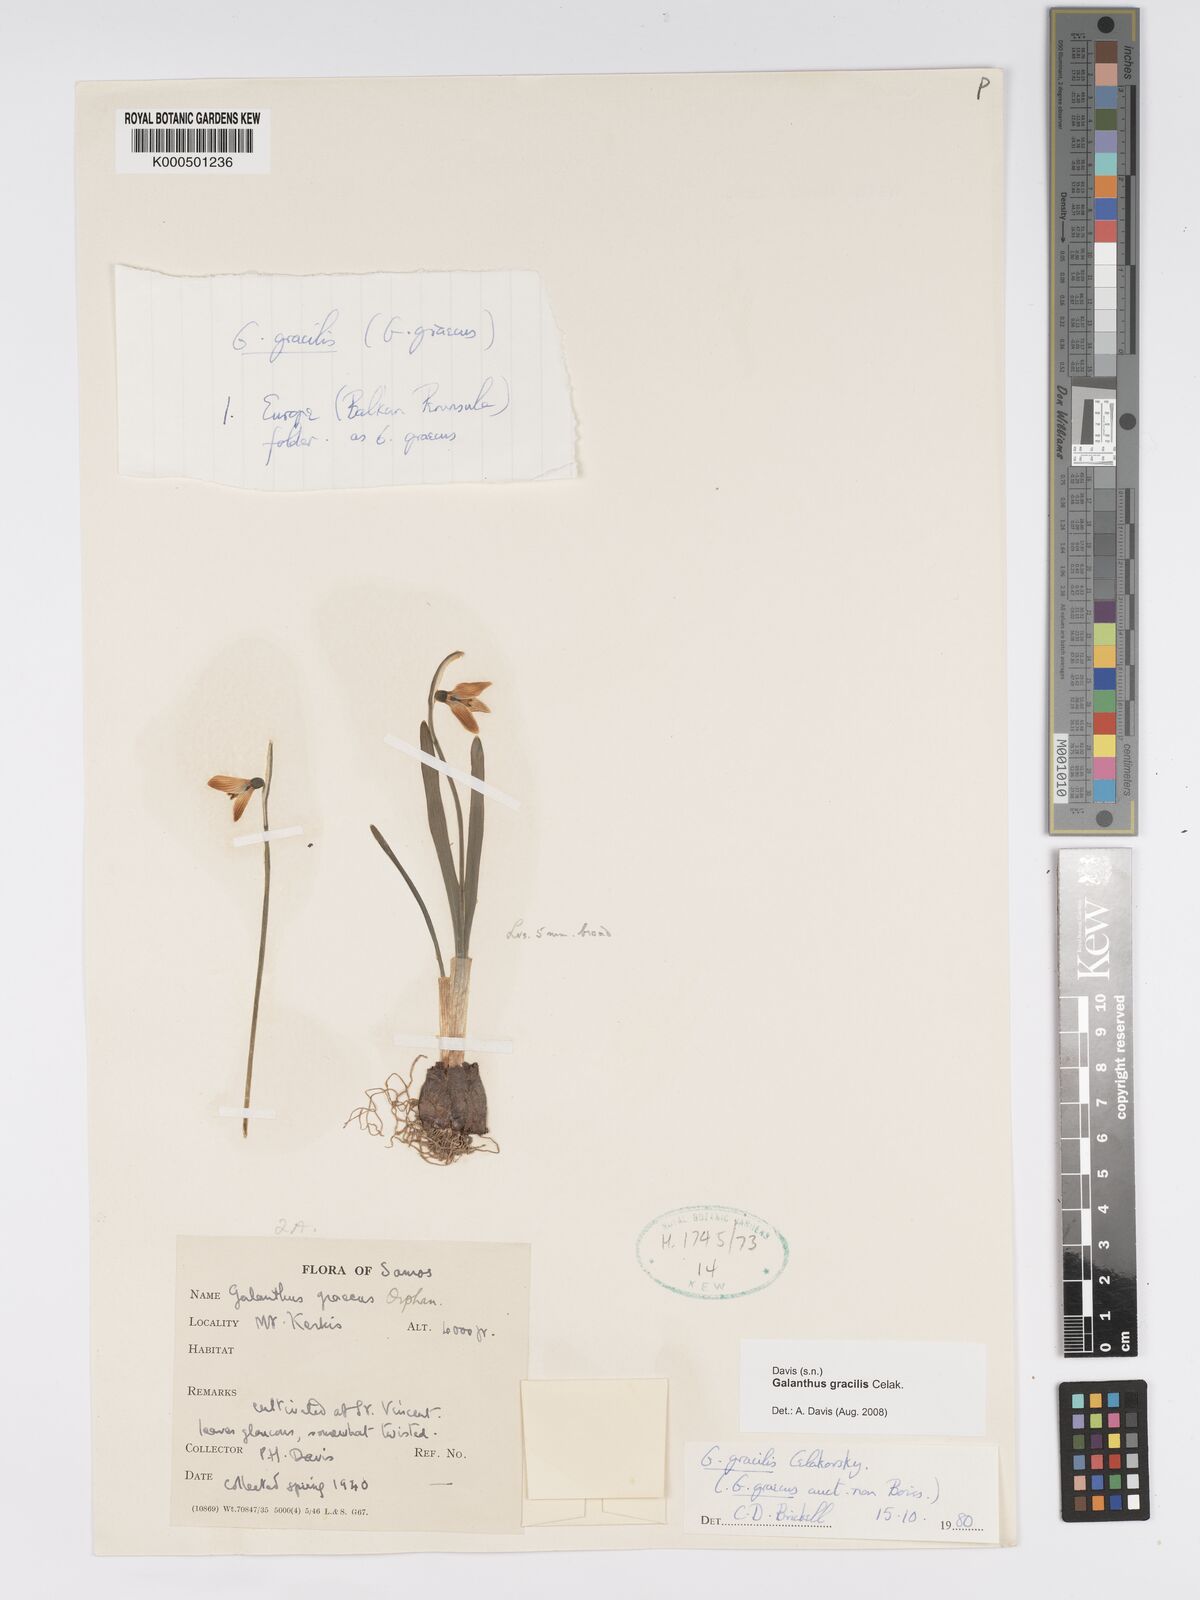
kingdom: Plantae
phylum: Tracheophyta
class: Liliopsida
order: Asparagales
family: Amaryllidaceae
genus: Galanthus
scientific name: Galanthus gracilis
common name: Snowdrop
